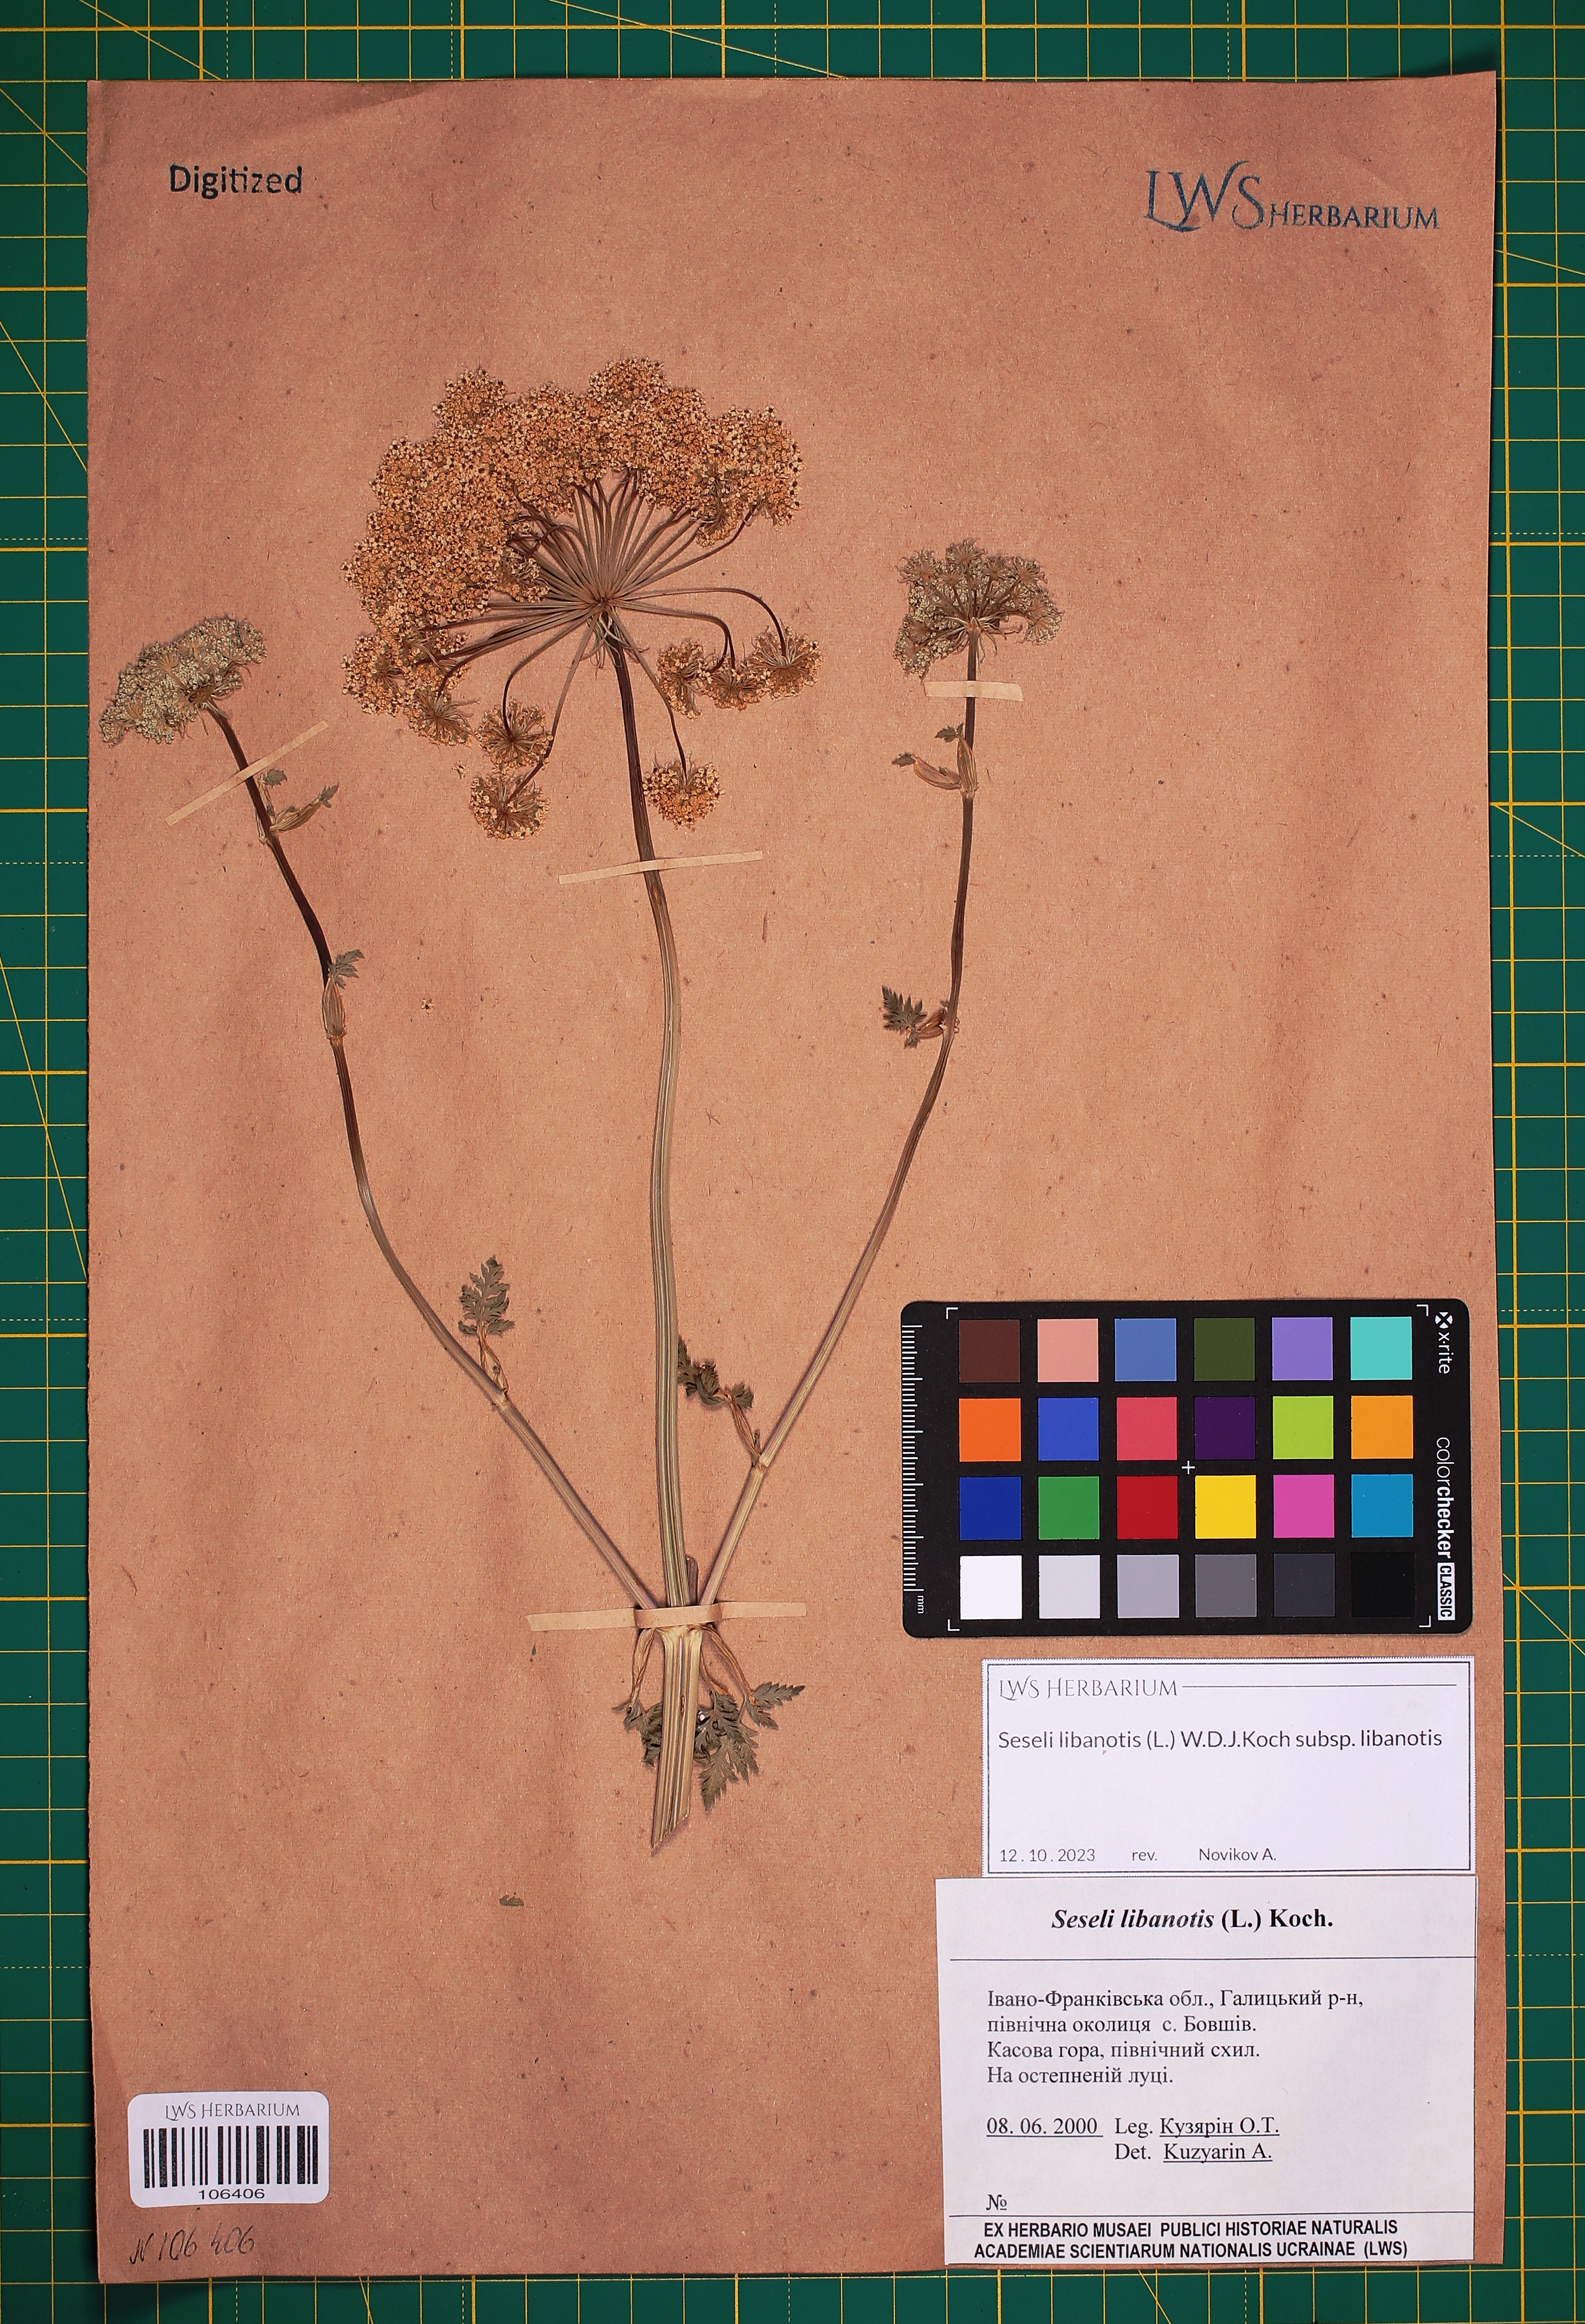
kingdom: Plantae
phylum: Tracheophyta
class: Magnoliopsida
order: Apiales
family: Apiaceae
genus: Seseli
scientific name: Seseli libanotis
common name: Mooncarrot
